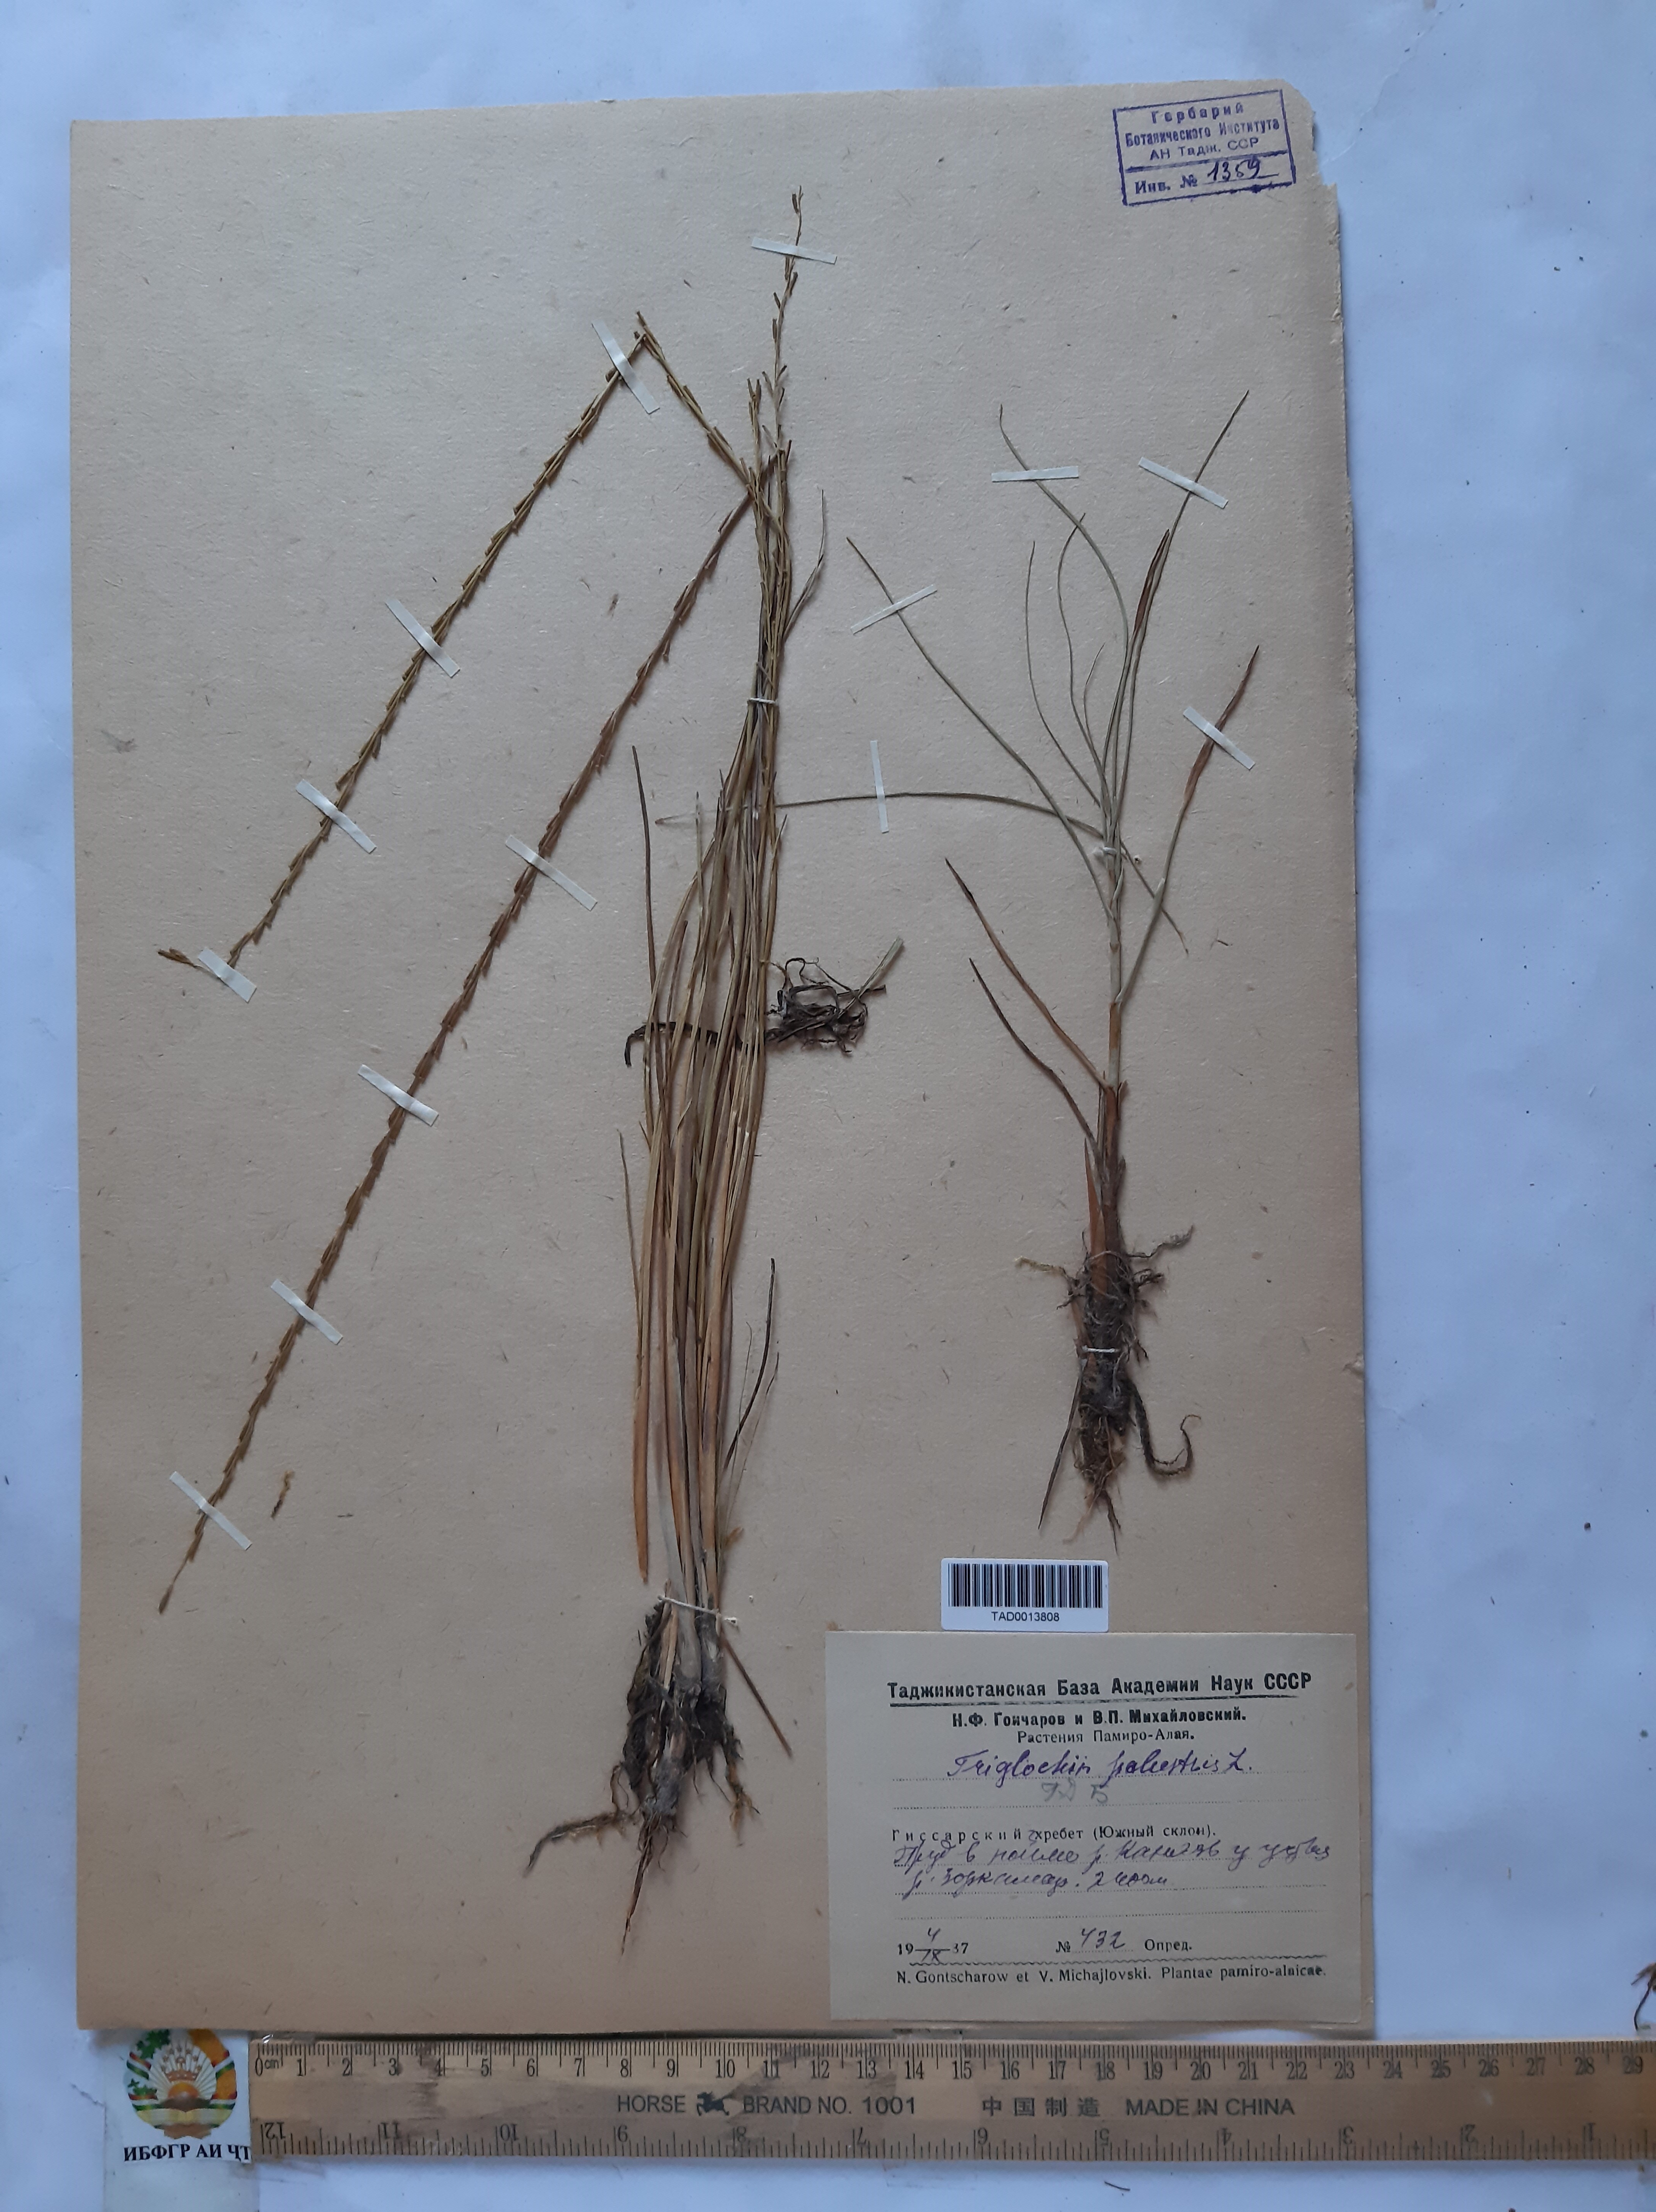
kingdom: Plantae
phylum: Tracheophyta
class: Liliopsida
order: Alismatales
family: Juncaginaceae
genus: Triglochin
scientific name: Triglochin palustris
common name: Marsh arrowgrass
